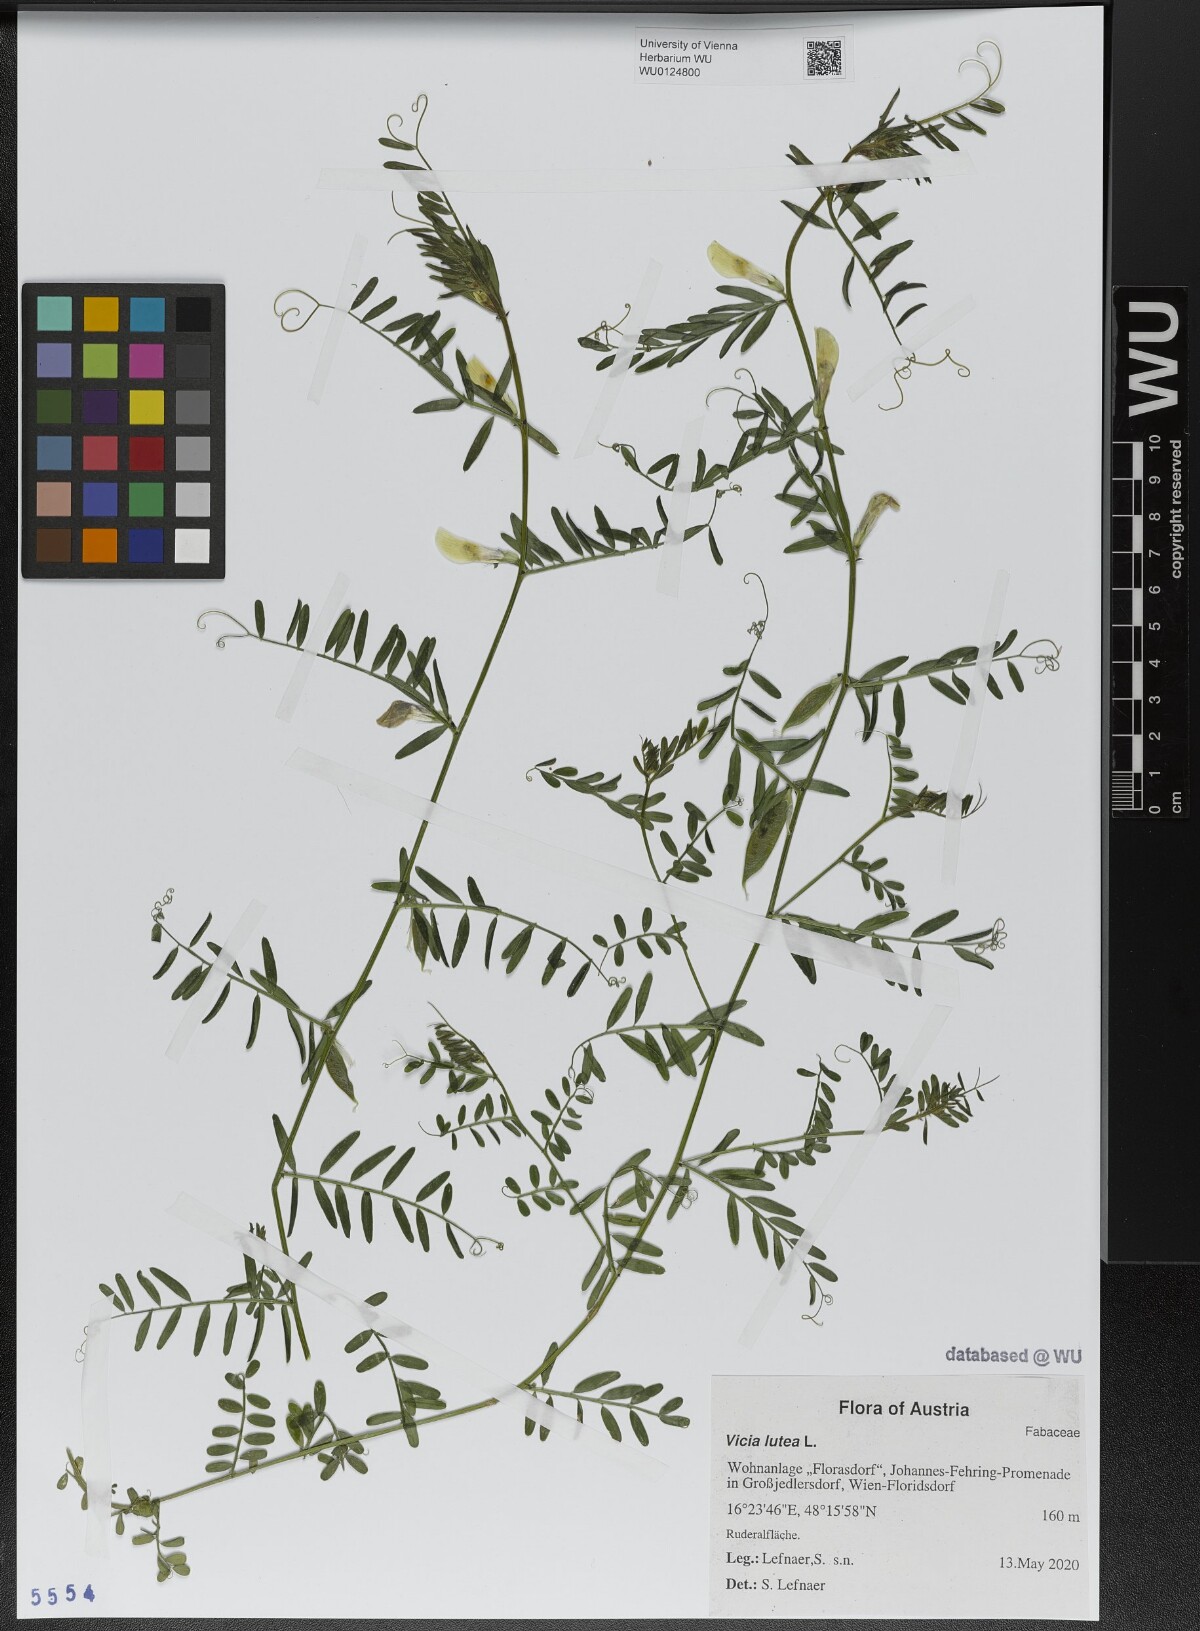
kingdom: Plantae
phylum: Tracheophyta
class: Magnoliopsida
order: Fabales
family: Fabaceae
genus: Vicia
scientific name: Vicia lutea
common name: Smooth yellow vetch
